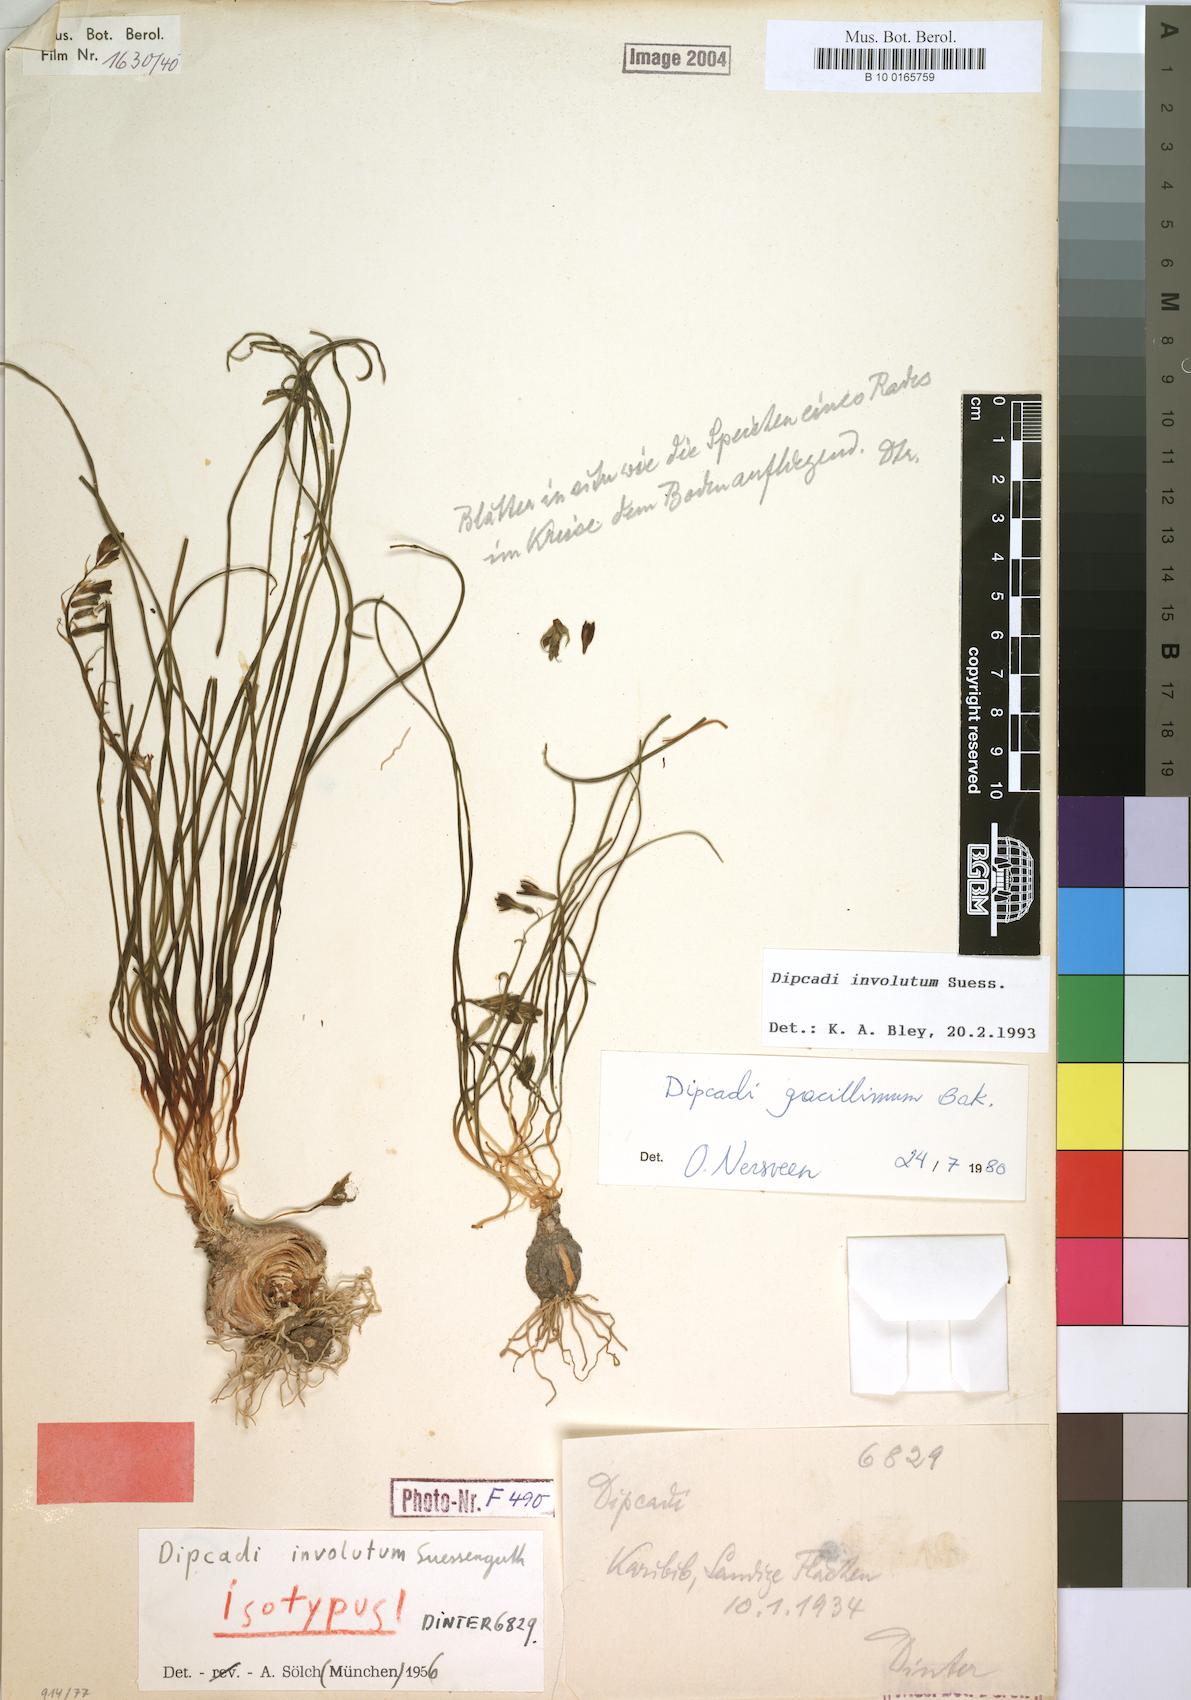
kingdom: Plantae
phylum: Tracheophyta
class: Liliopsida
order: Asparagales
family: Asparagaceae
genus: Dipcadi
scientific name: Dipcadi gracillimum
